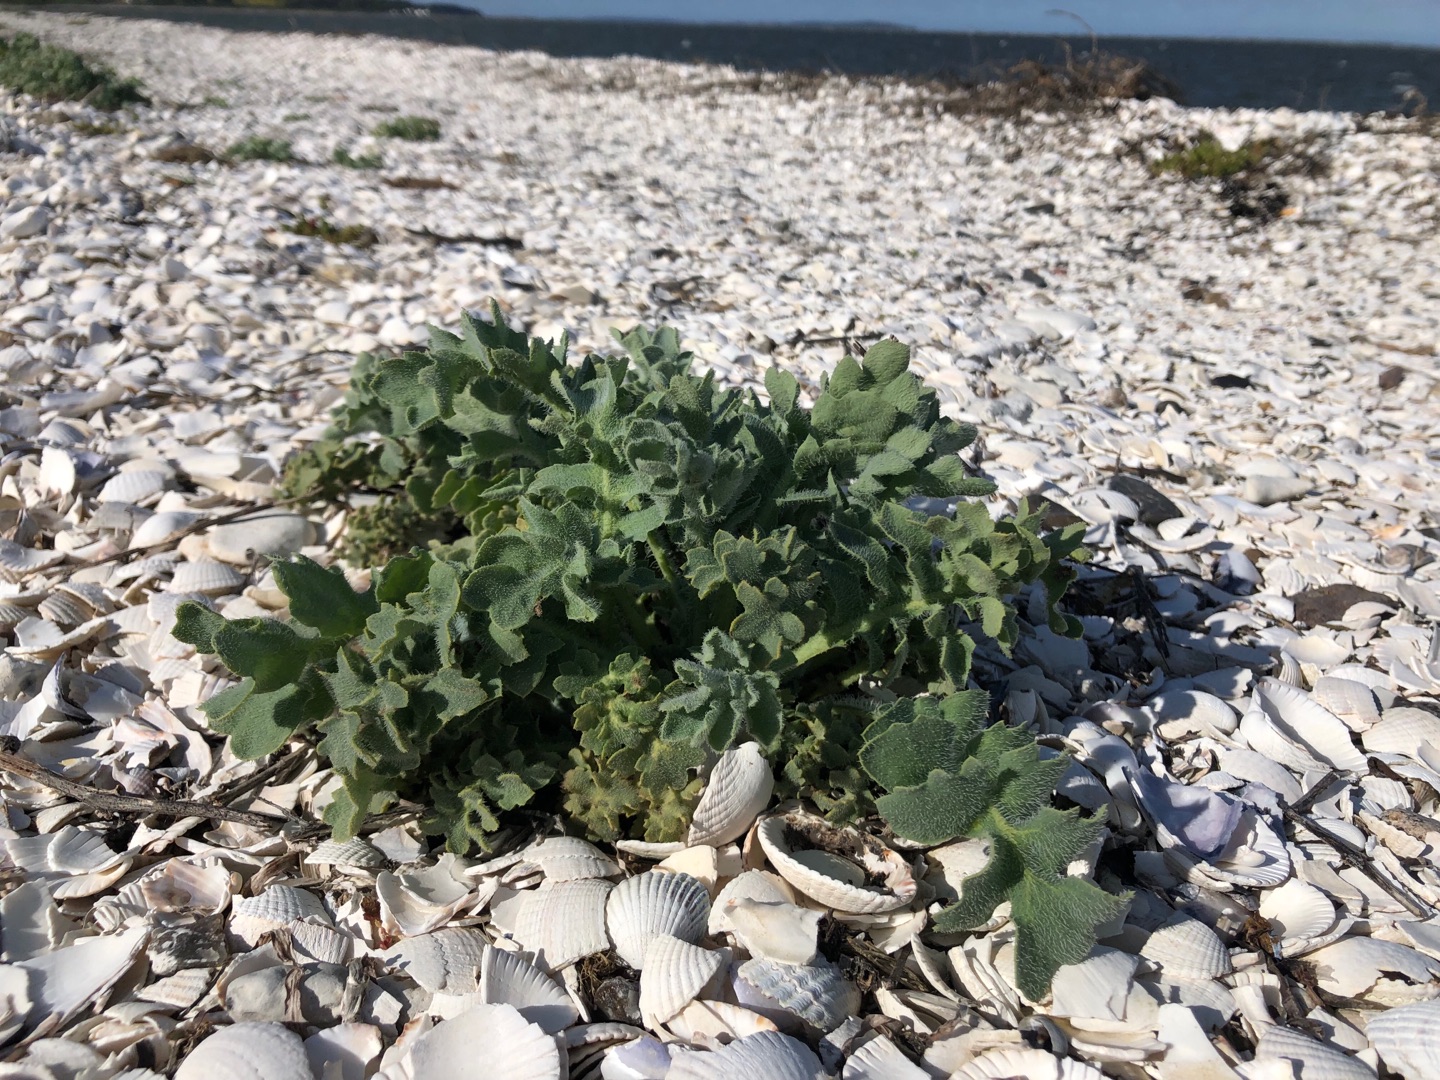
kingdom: Plantae
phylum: Tracheophyta
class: Magnoliopsida
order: Ranunculales
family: Papaveraceae
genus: Glaucium
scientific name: Glaucium flavum
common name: Hornskulpe
